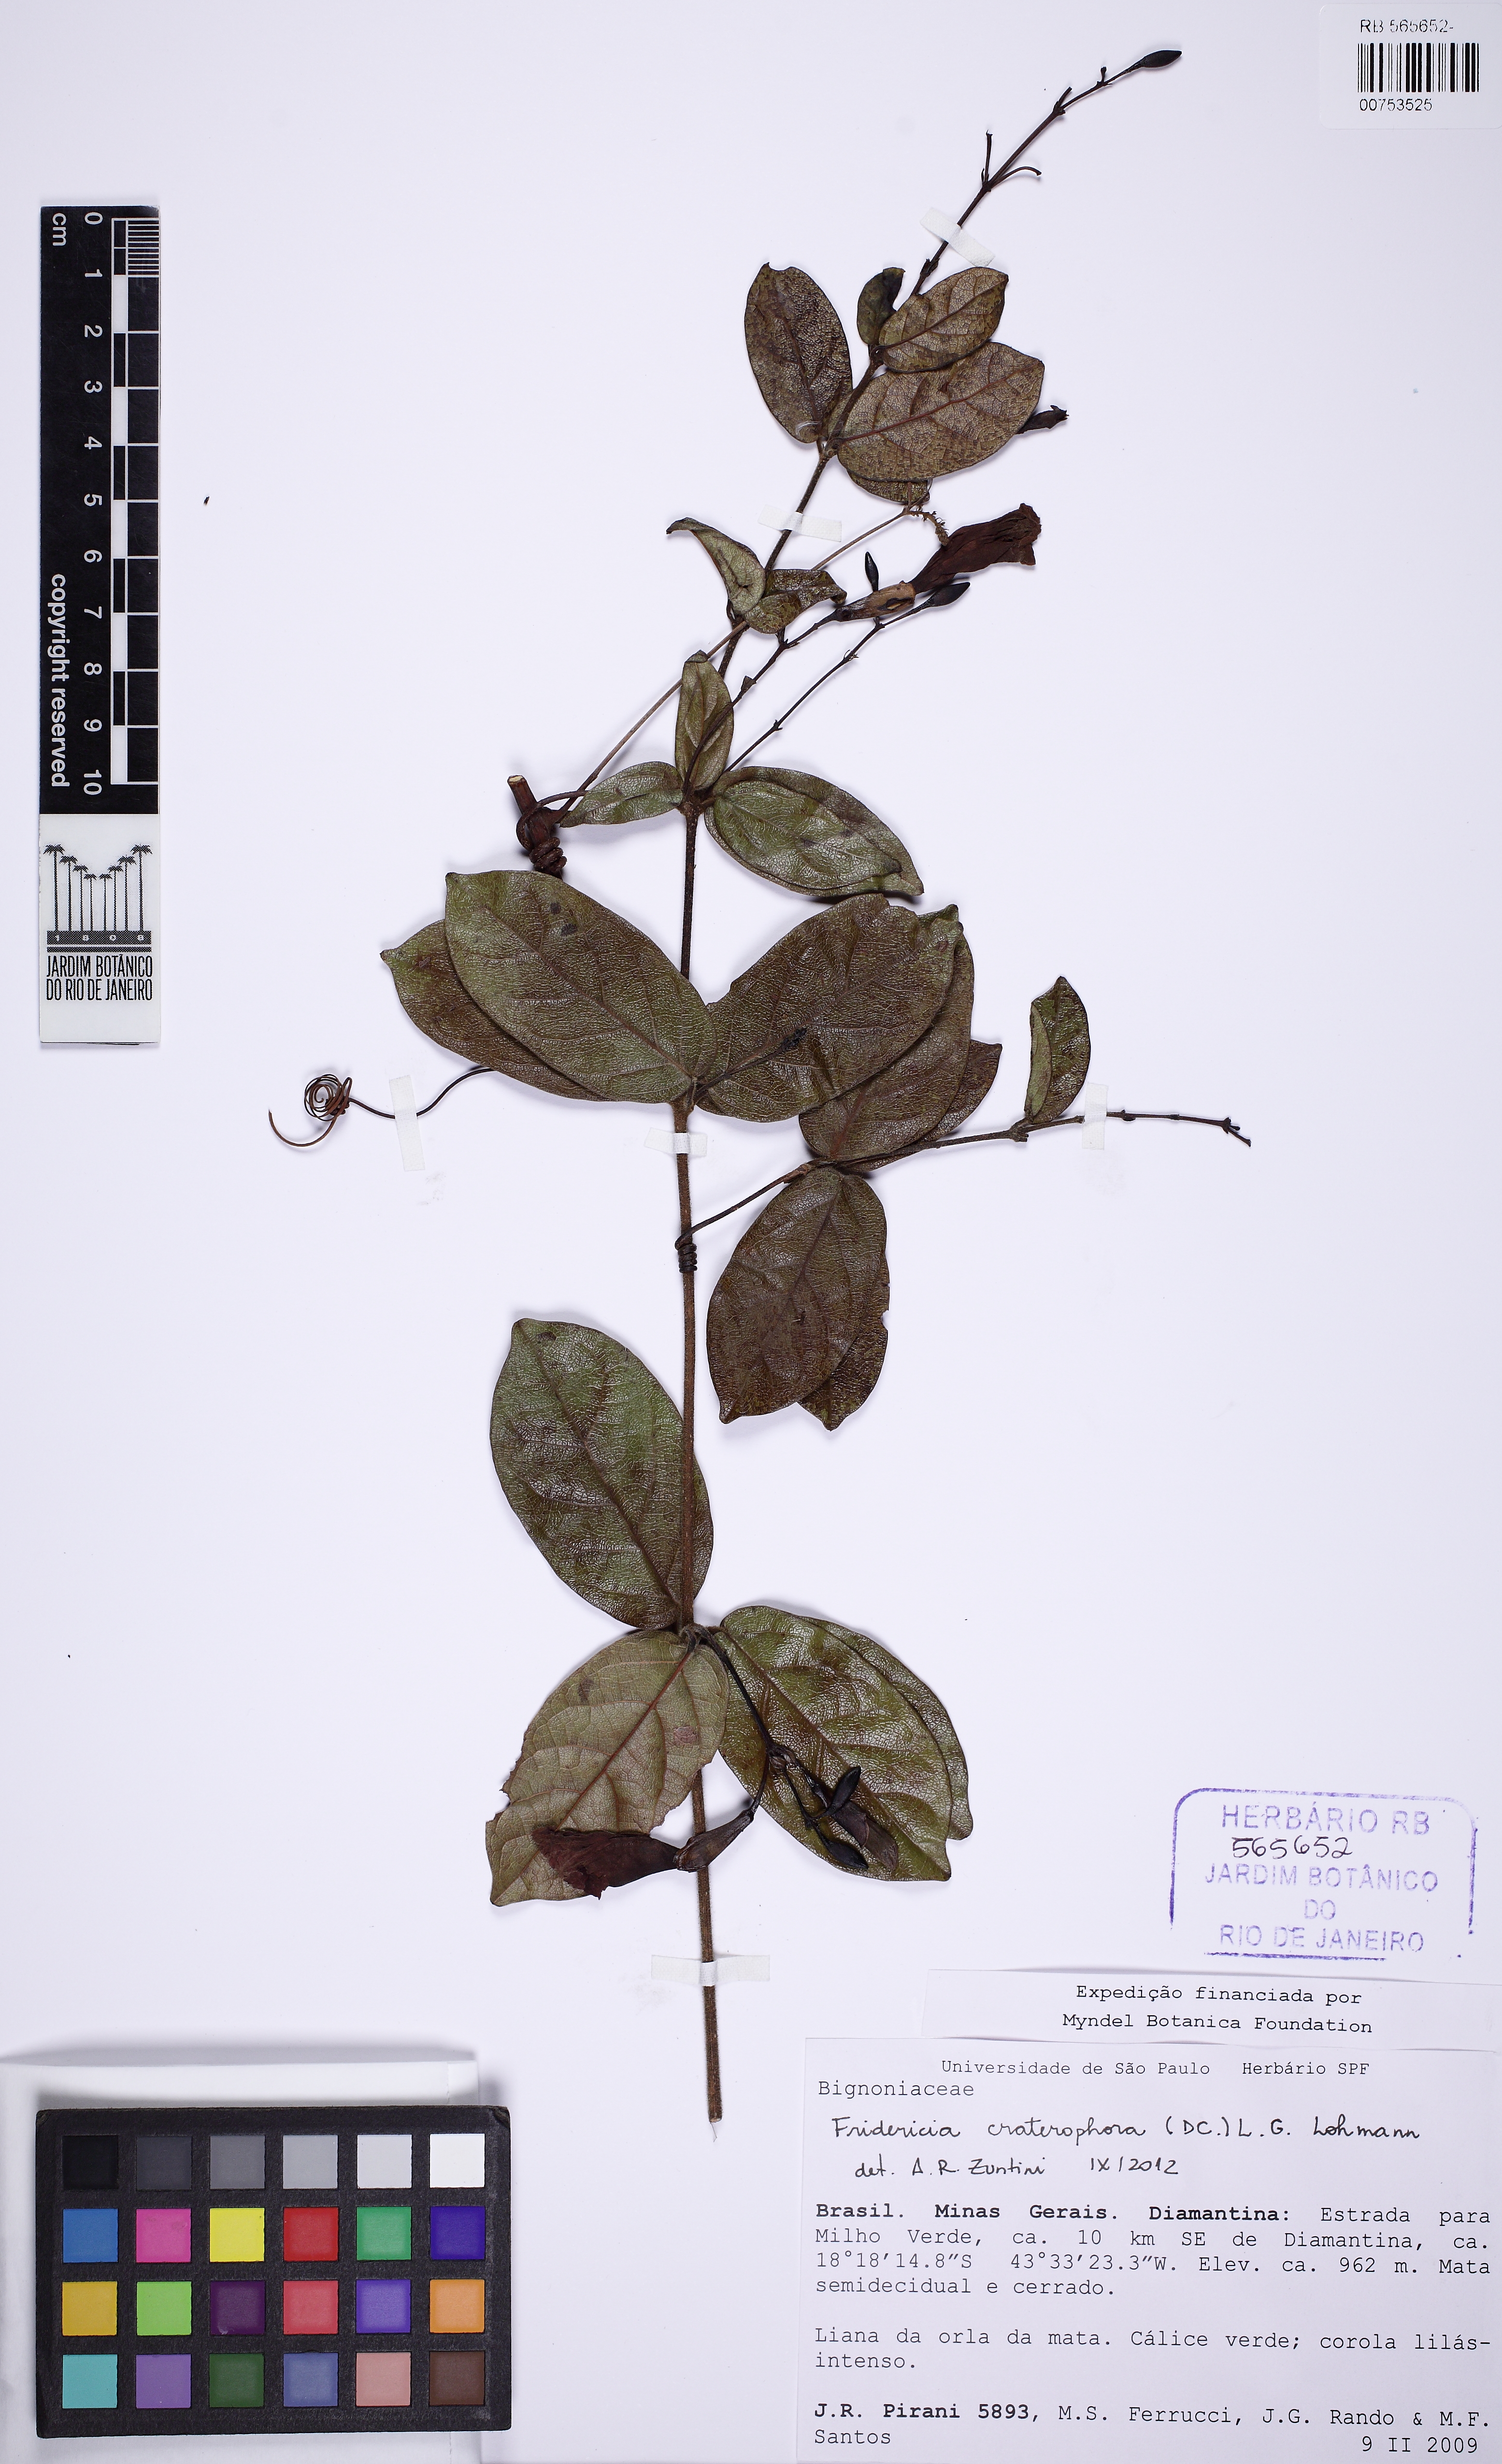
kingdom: Plantae
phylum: Tracheophyta
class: Magnoliopsida
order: Lamiales
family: Bignoniaceae
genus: Fridericia
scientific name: Fridericia craterophora
